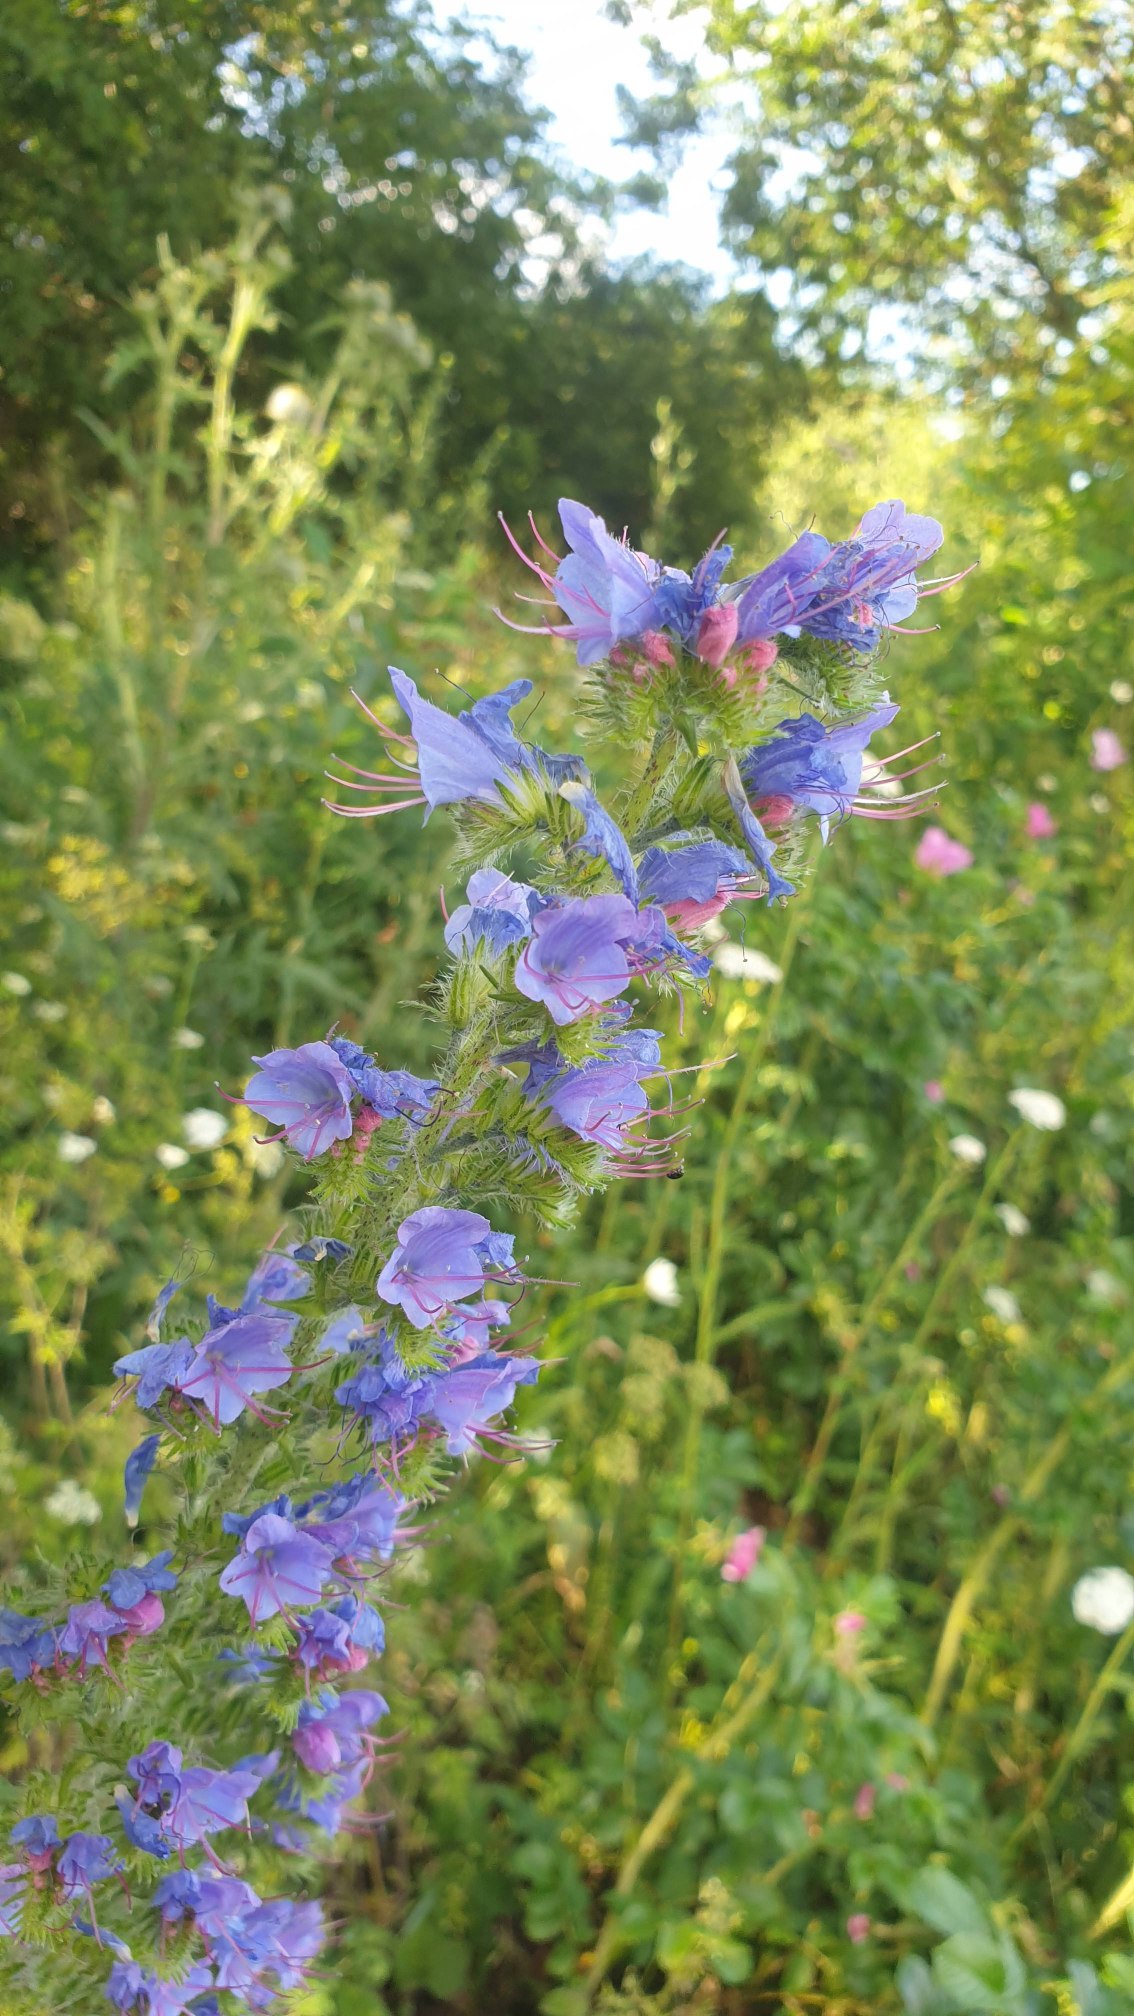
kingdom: Plantae
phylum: Tracheophyta
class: Magnoliopsida
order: Boraginales
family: Boraginaceae
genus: Echium
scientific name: Echium vulgare
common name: Slangehoved
